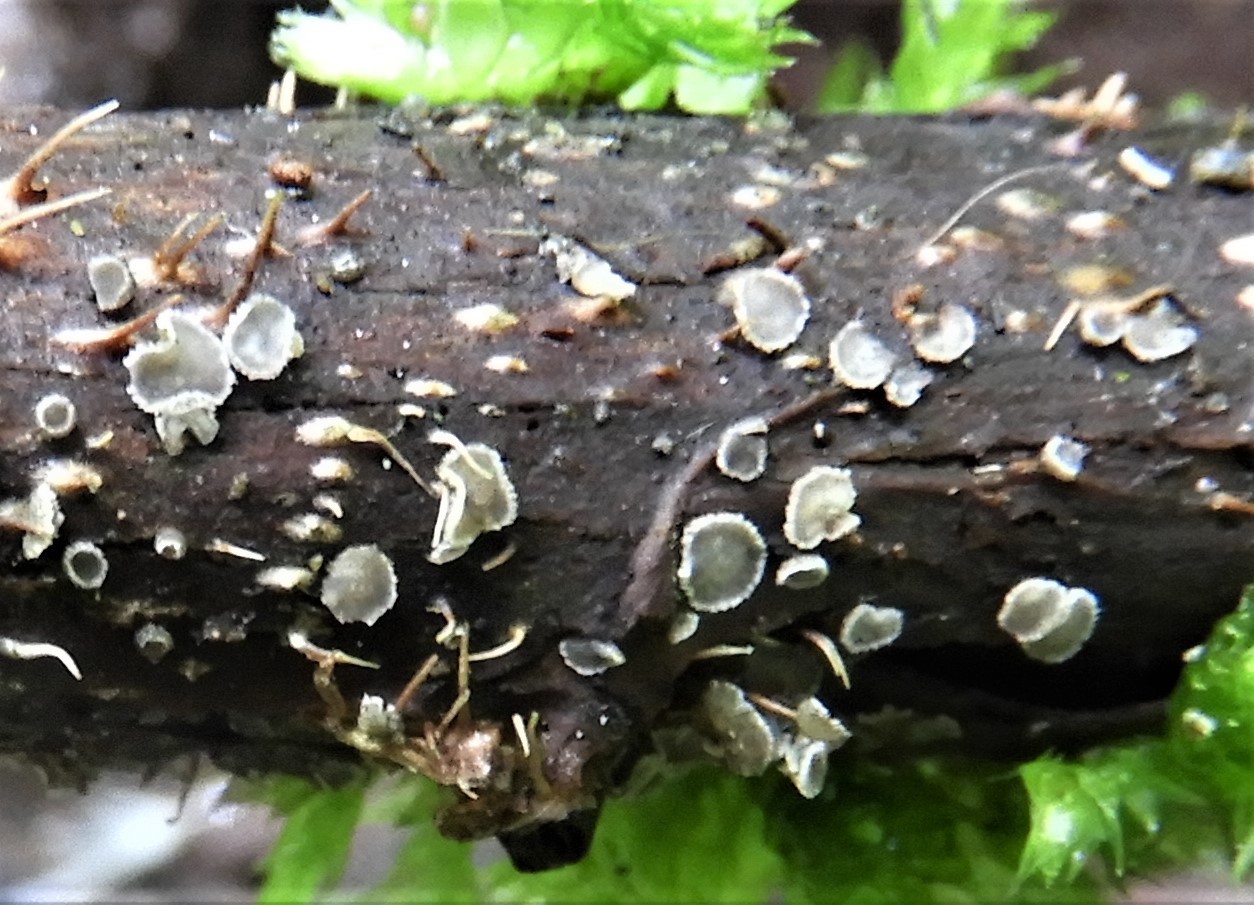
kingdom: Fungi
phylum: Ascomycota
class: Leotiomycetes
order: Helotiales
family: Mollisiaceae
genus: Mollisia
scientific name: Mollisia
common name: gråskive
